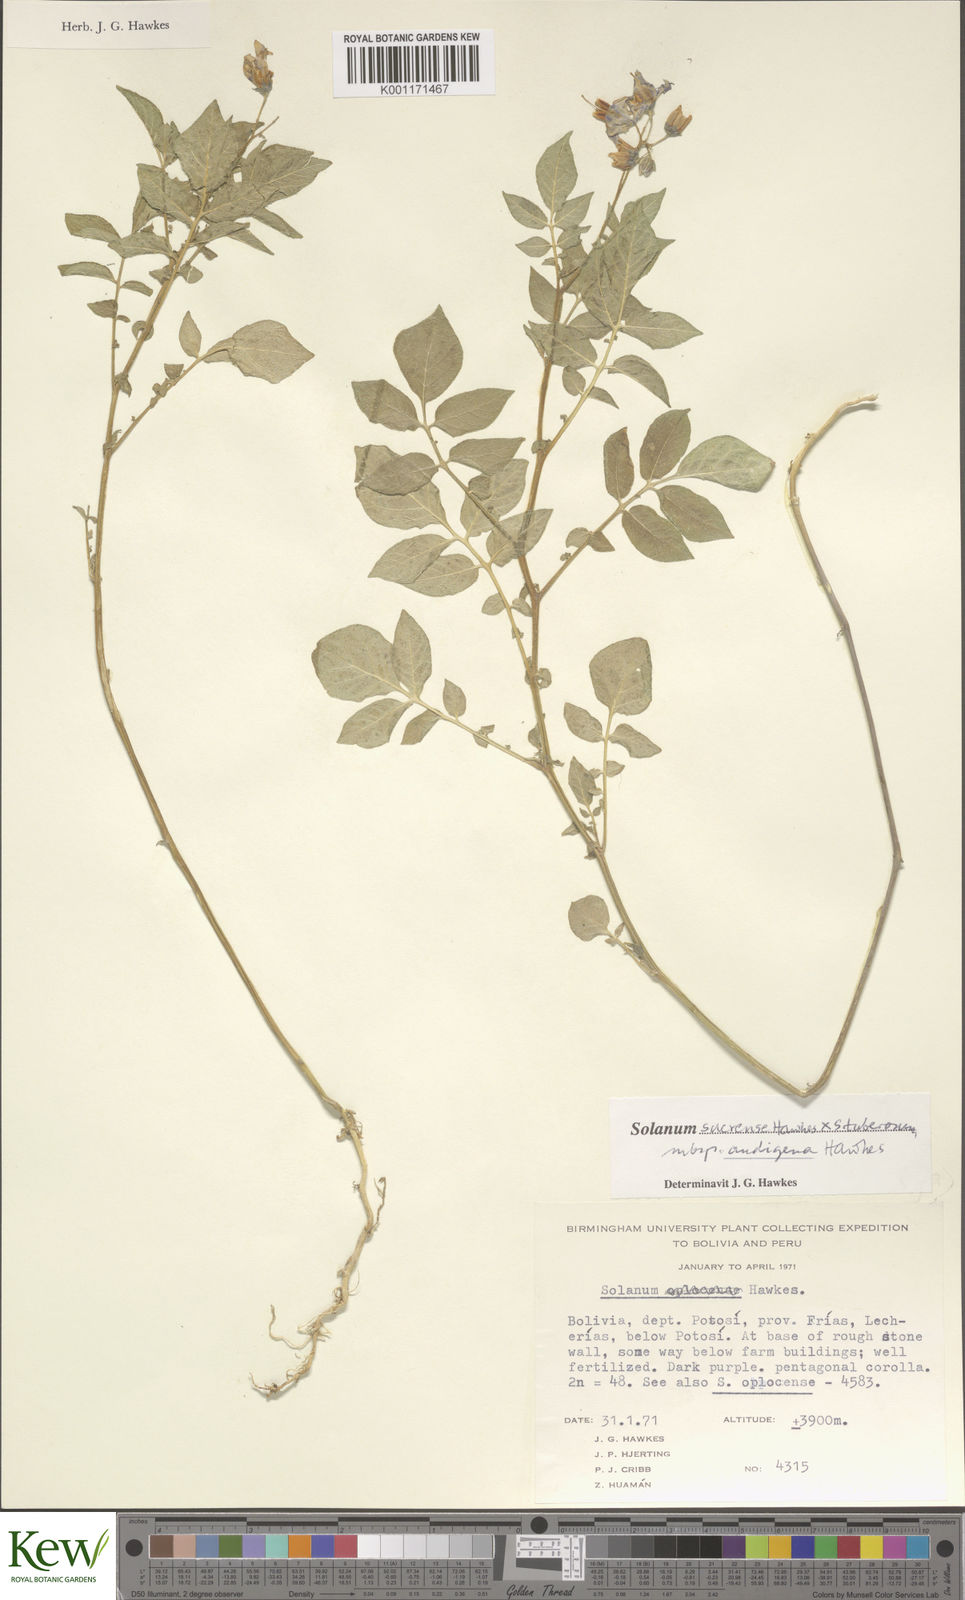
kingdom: Plantae
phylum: Tracheophyta
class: Magnoliopsida
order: Solanales
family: Solanaceae
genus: Solanum
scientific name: Solanum tuberosum
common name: Potato
